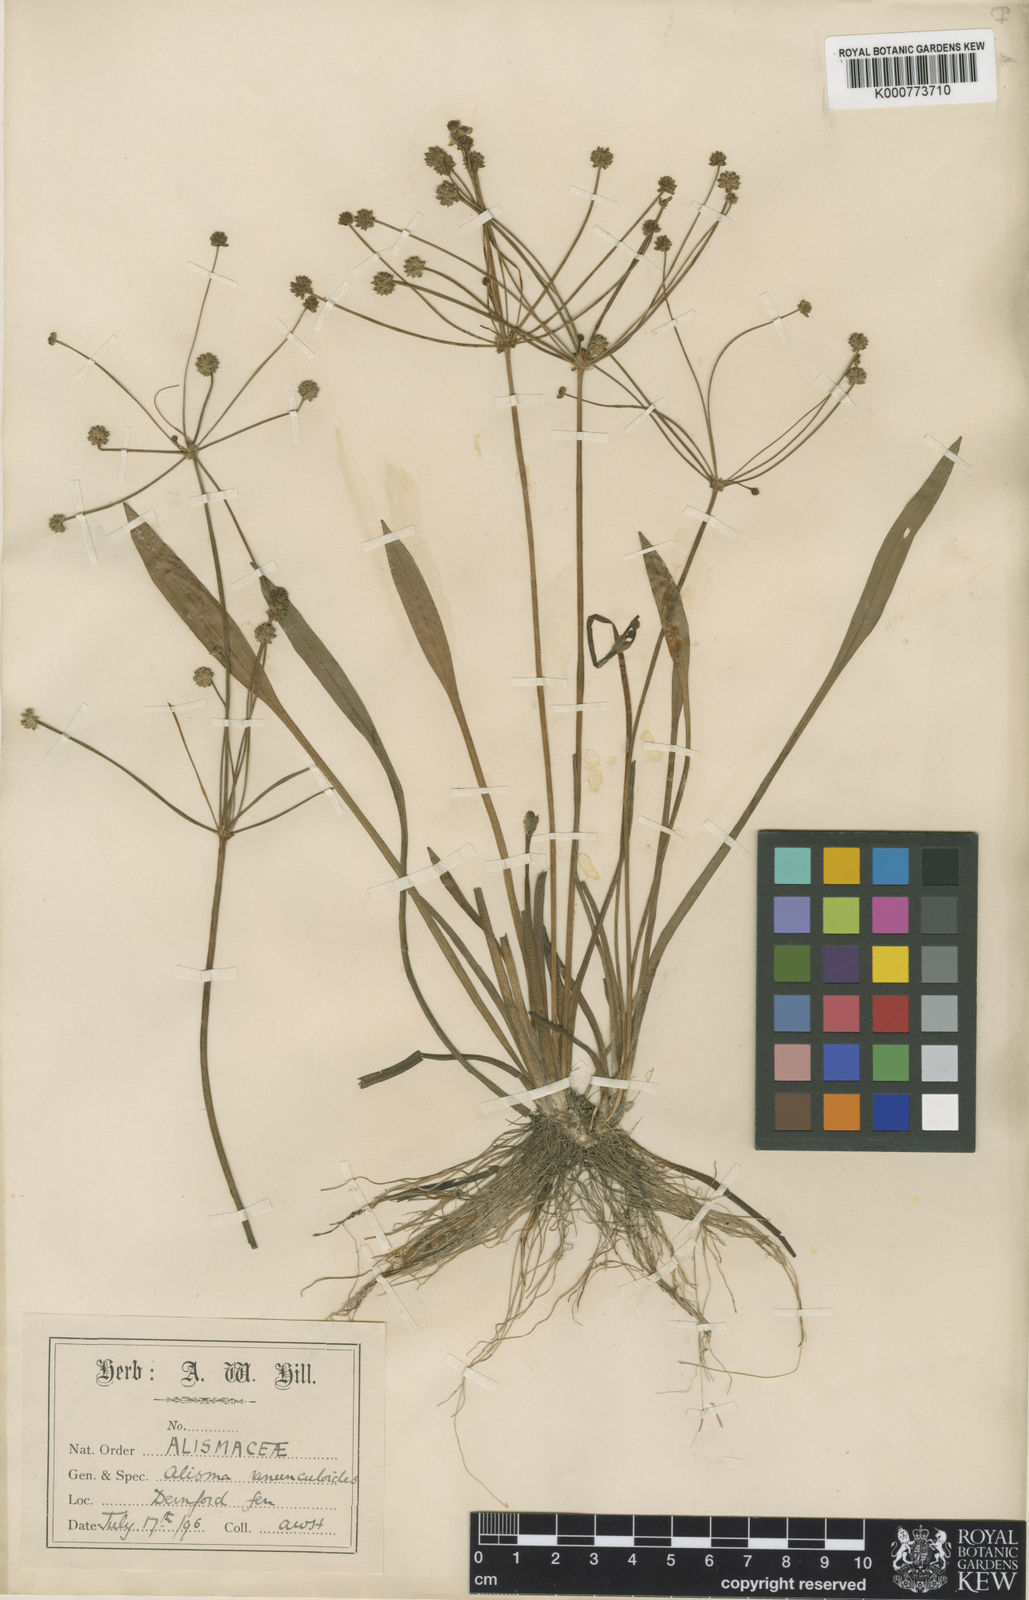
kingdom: Plantae
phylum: Tracheophyta
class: Liliopsida
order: Alismatales
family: Alismataceae
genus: Baldellia
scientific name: Baldellia ranunculoides
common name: Lesser water-plantain
